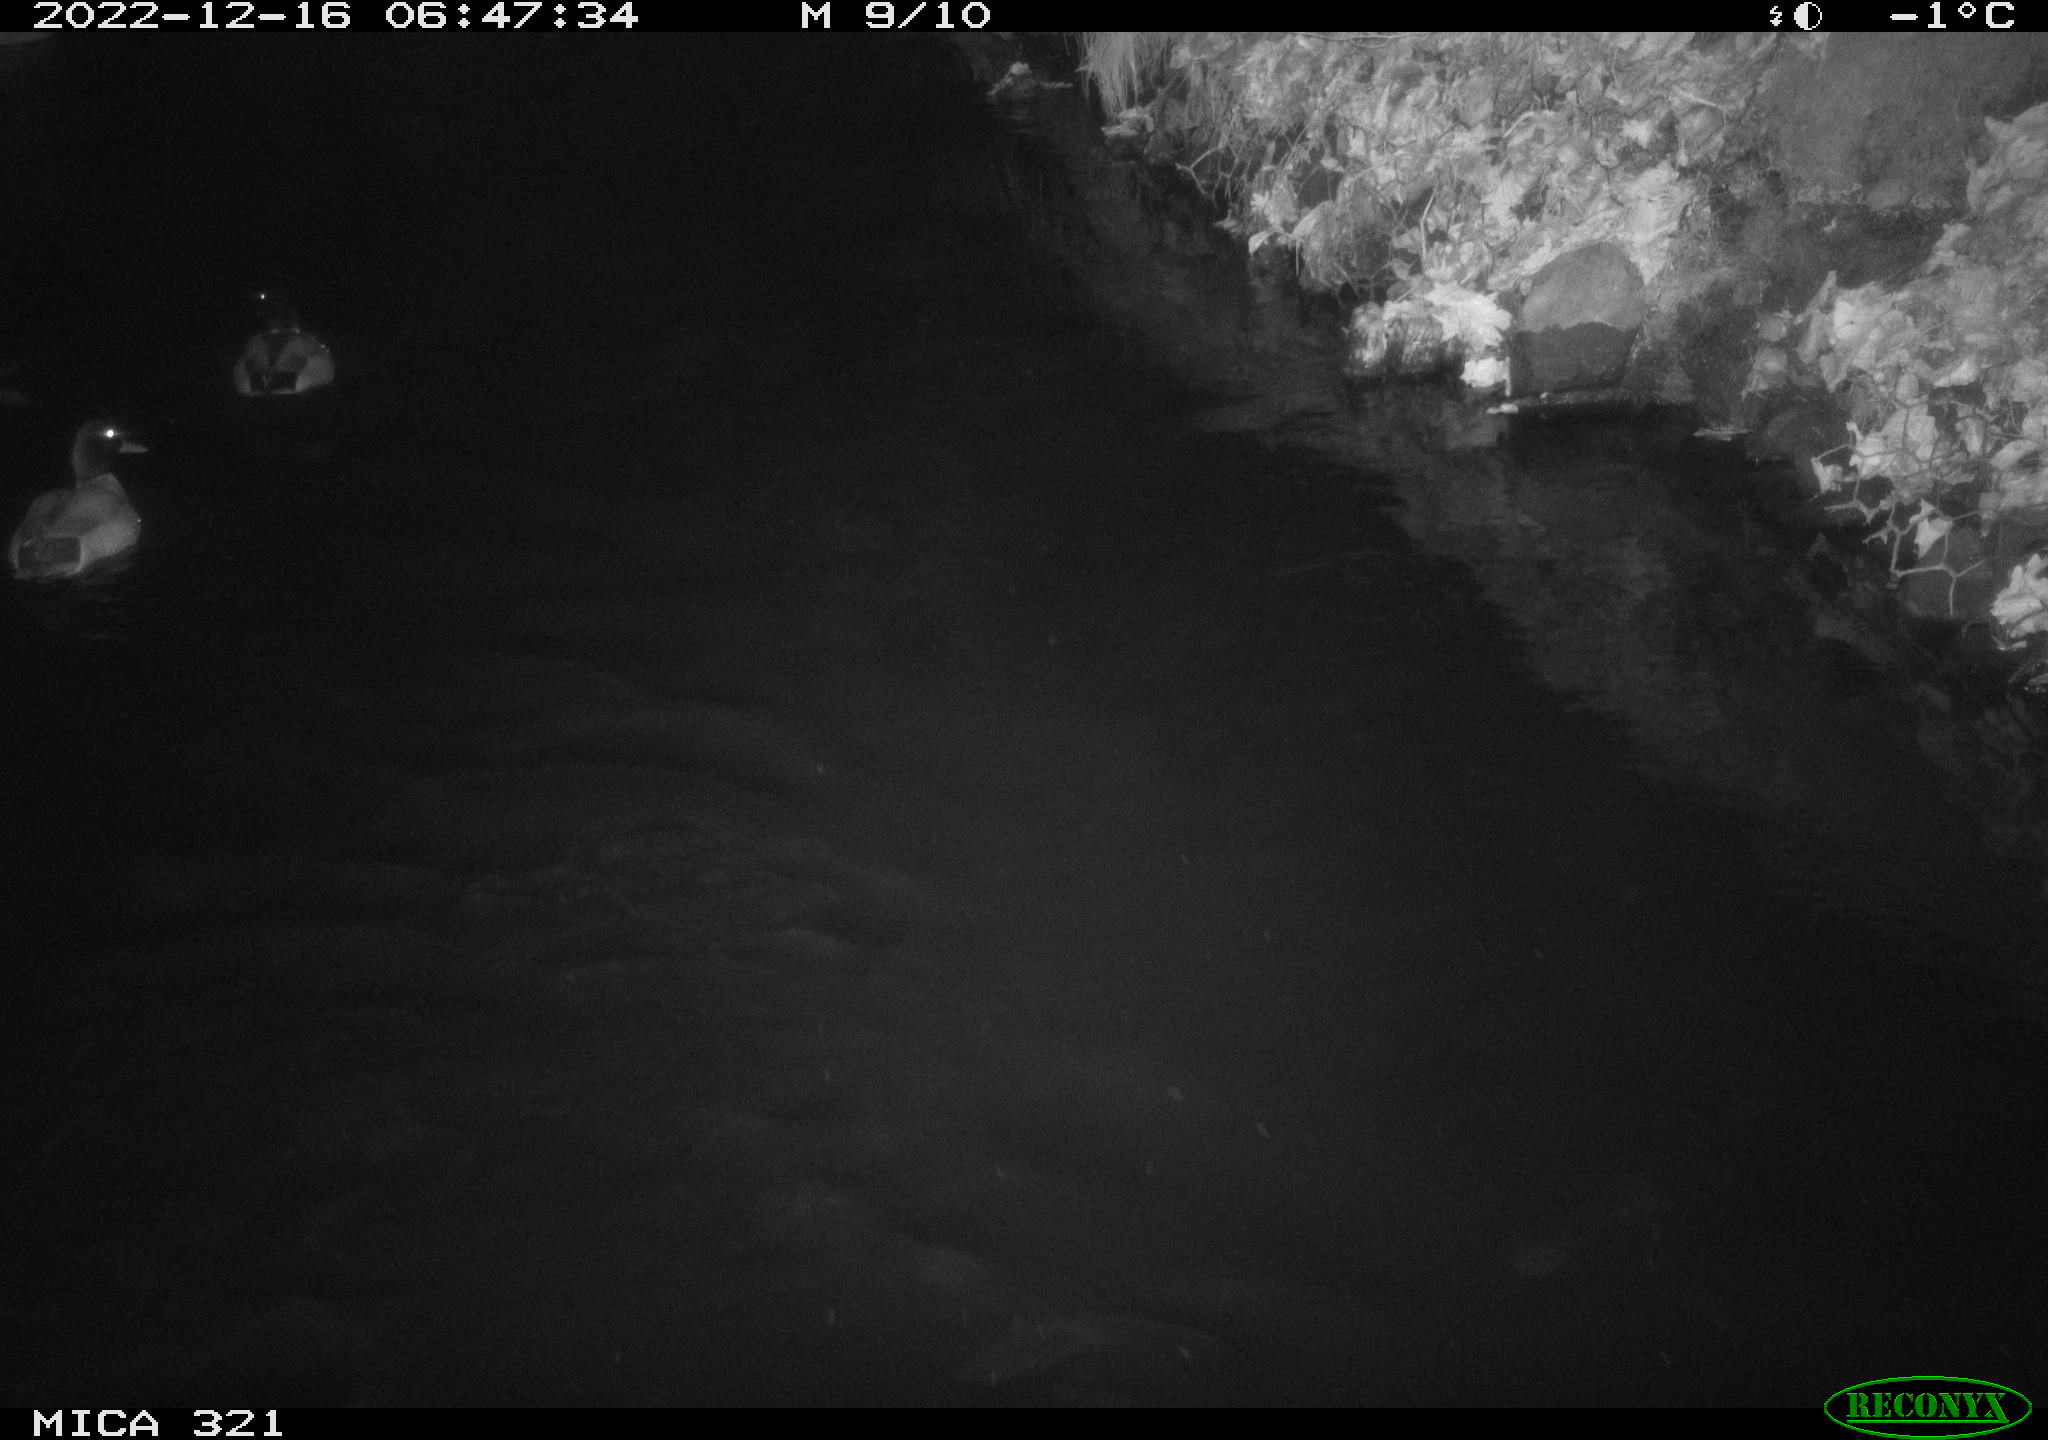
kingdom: Animalia
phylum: Chordata
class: Aves
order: Anseriformes
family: Anatidae
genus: Anas
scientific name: Anas
